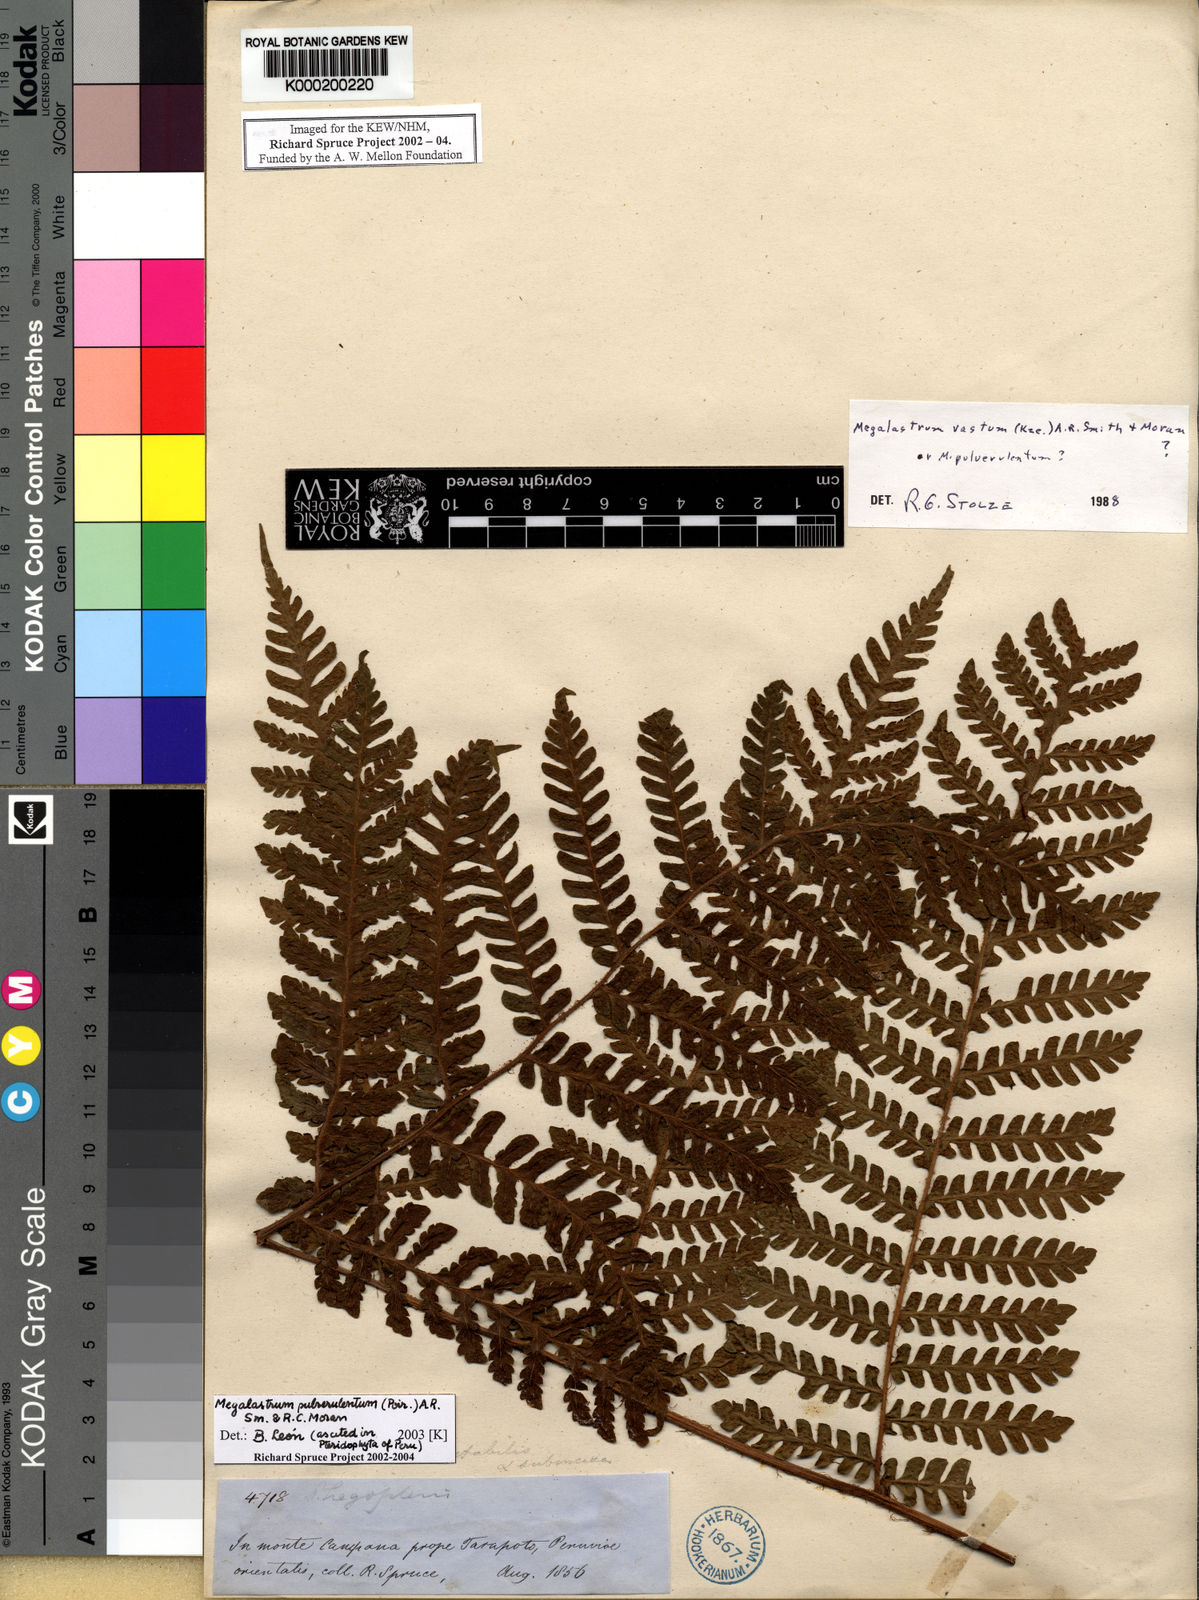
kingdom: Plantae
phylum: Tracheophyta
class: Polypodiopsida
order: Polypodiales
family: Dryopteridaceae
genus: Megalastrum
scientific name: Megalastrum
